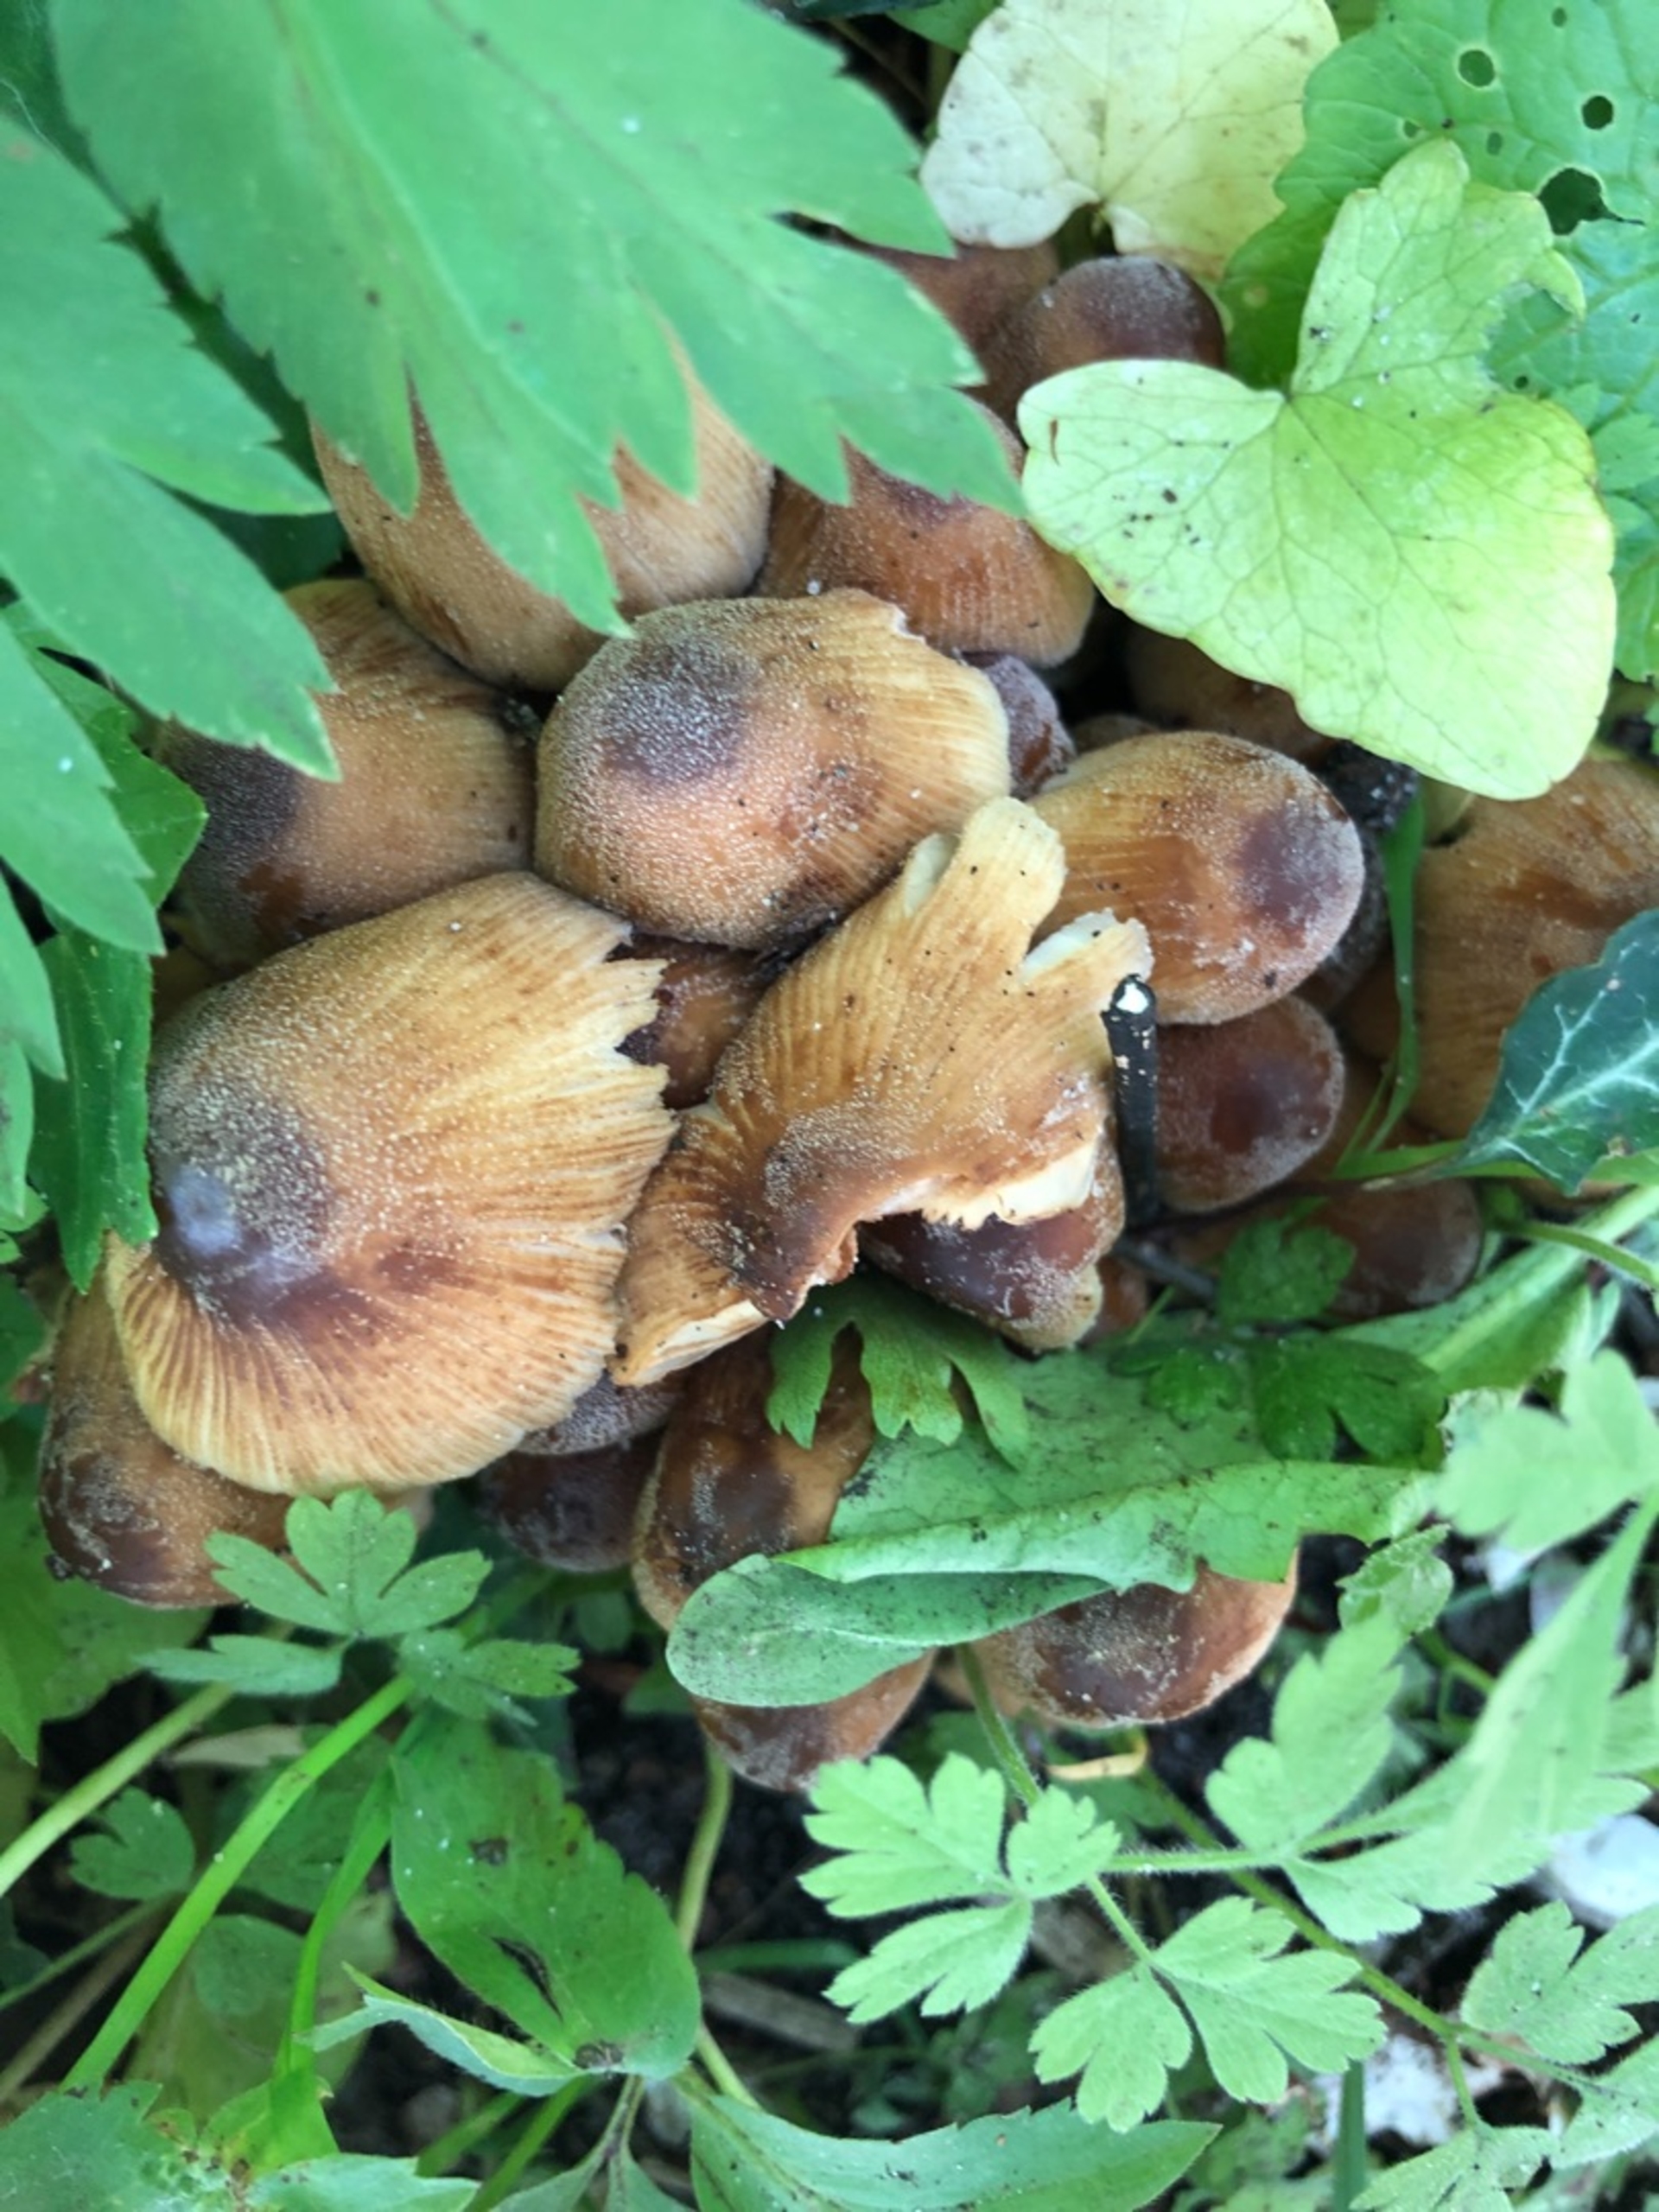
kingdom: Fungi
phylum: Basidiomycota
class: Agaricomycetes
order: Agaricales
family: Psathyrellaceae
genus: Coprinellus
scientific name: Coprinellus
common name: Blækhat
